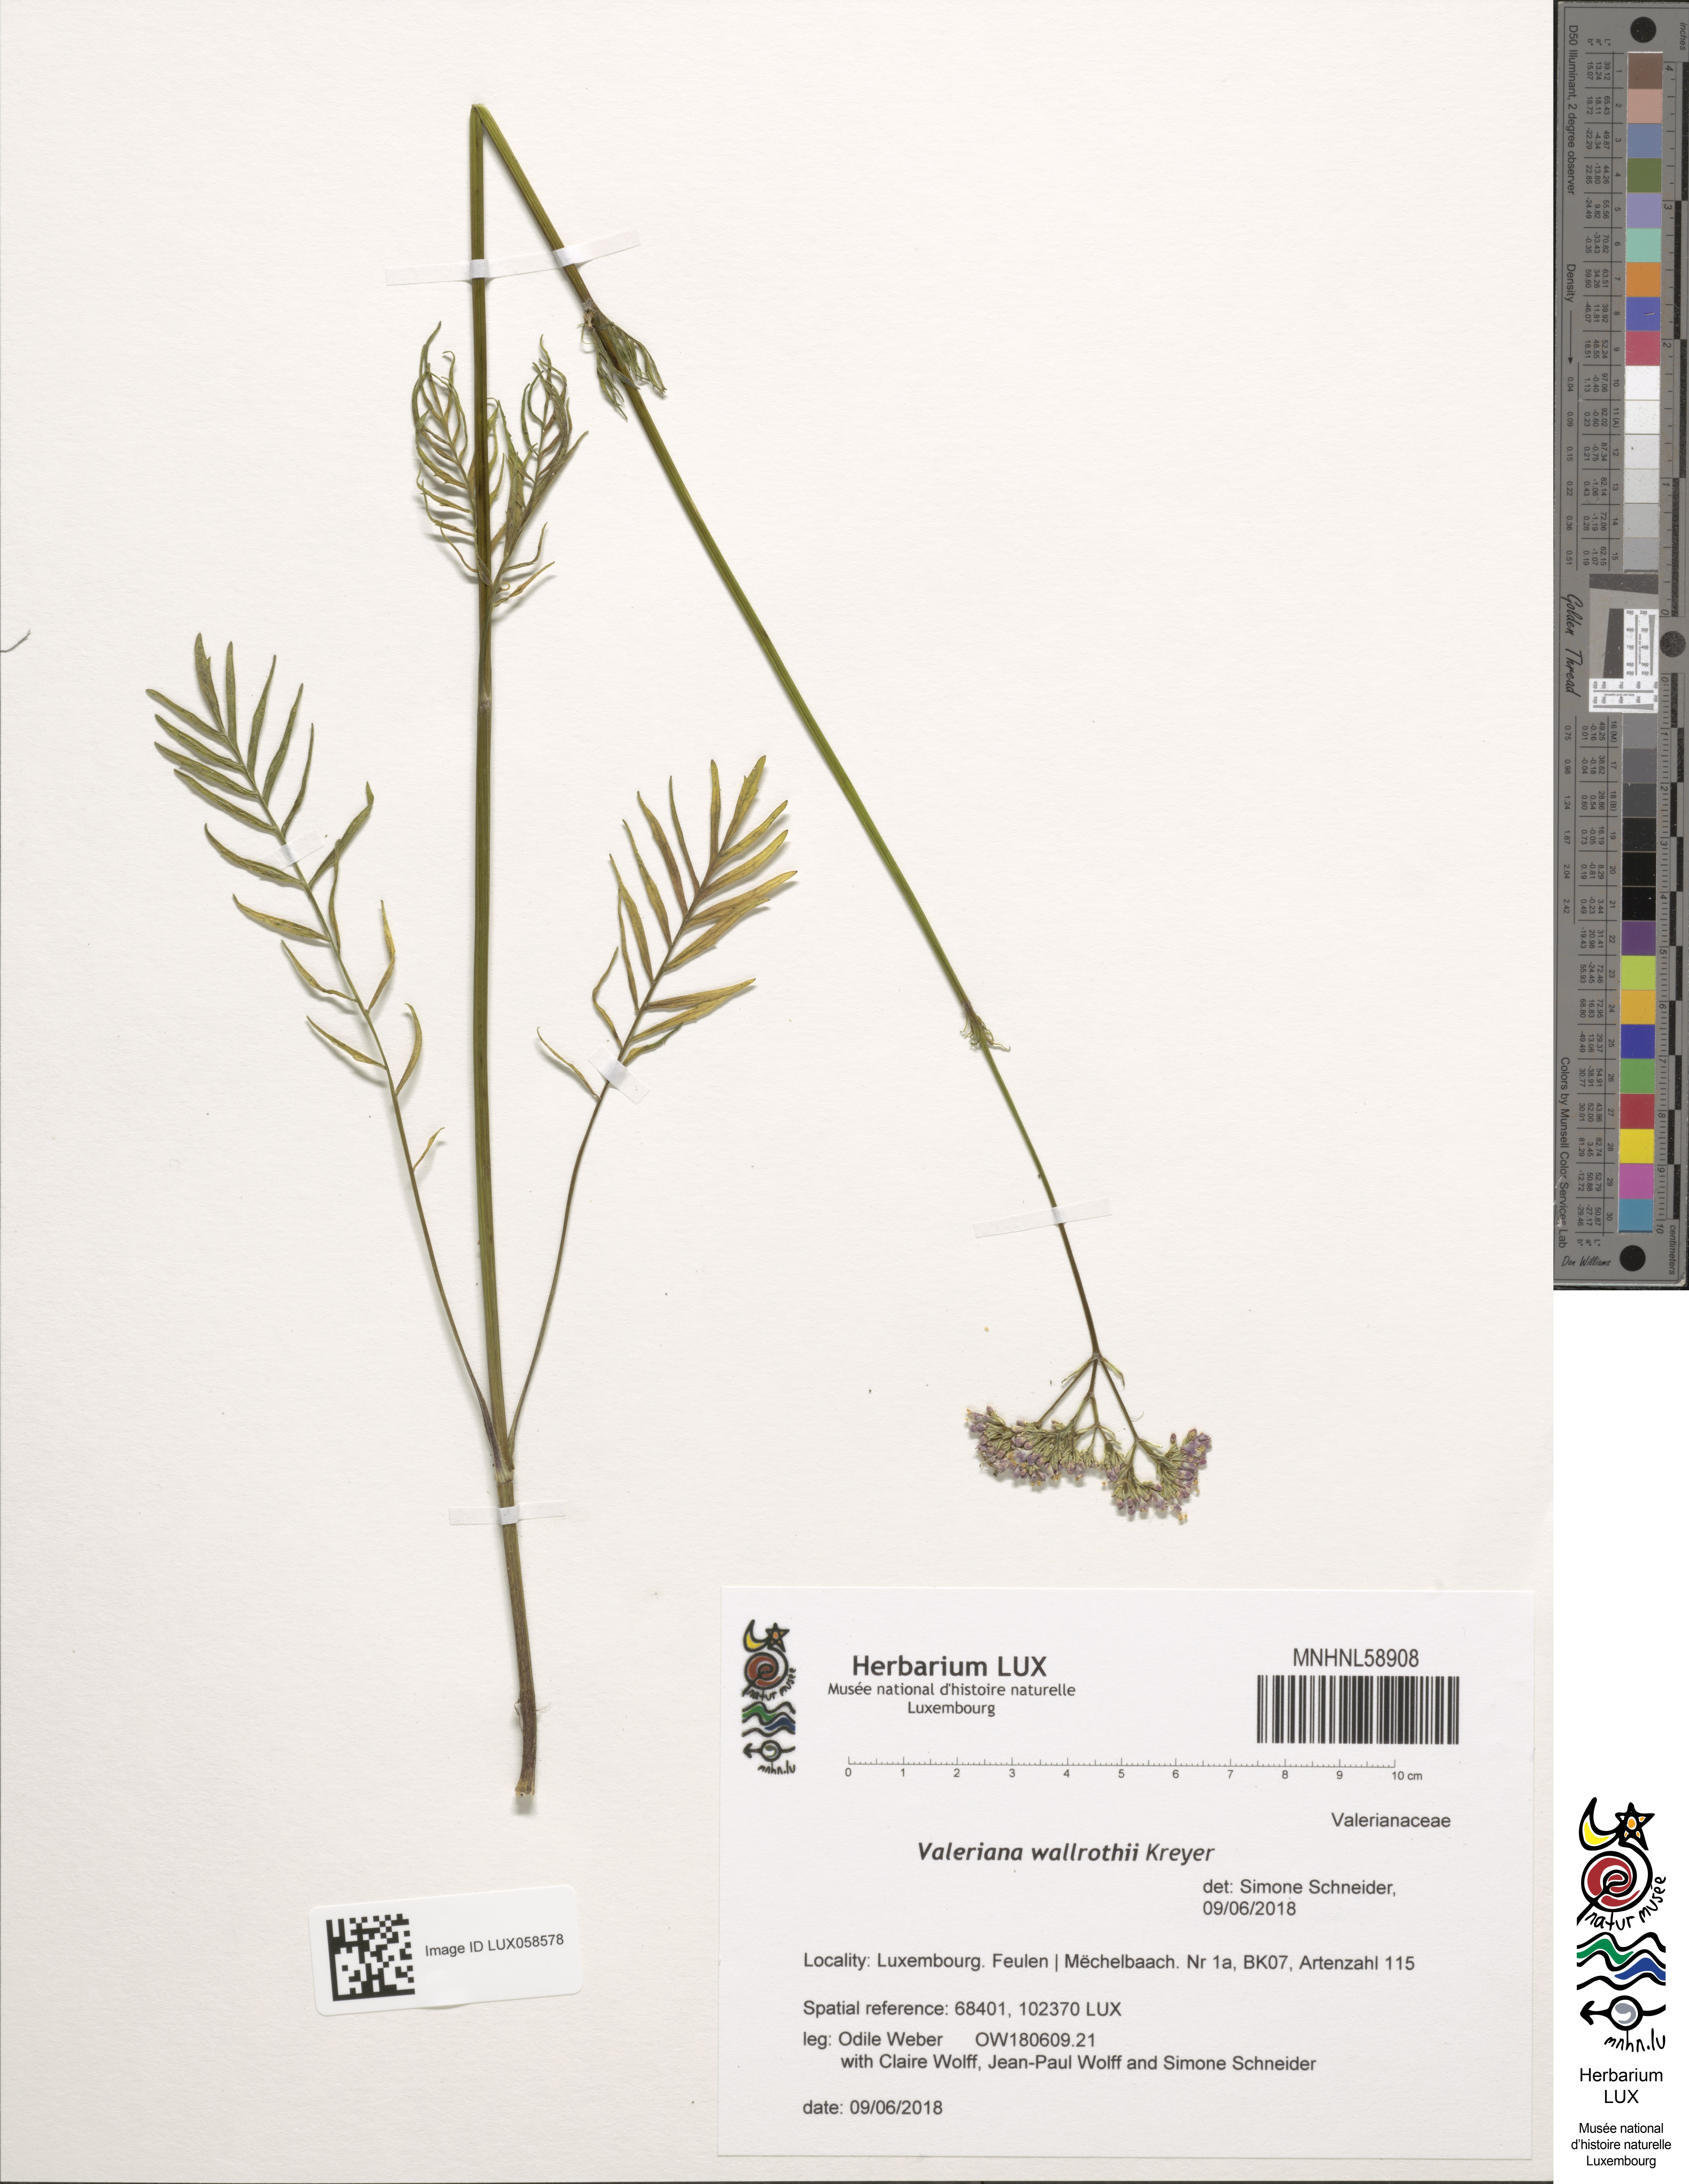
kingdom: Plantae
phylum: Tracheophyta
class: Magnoliopsida
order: Dipsacales
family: Caprifoliaceae
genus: Valeriana
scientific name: Valeriana pratensis
